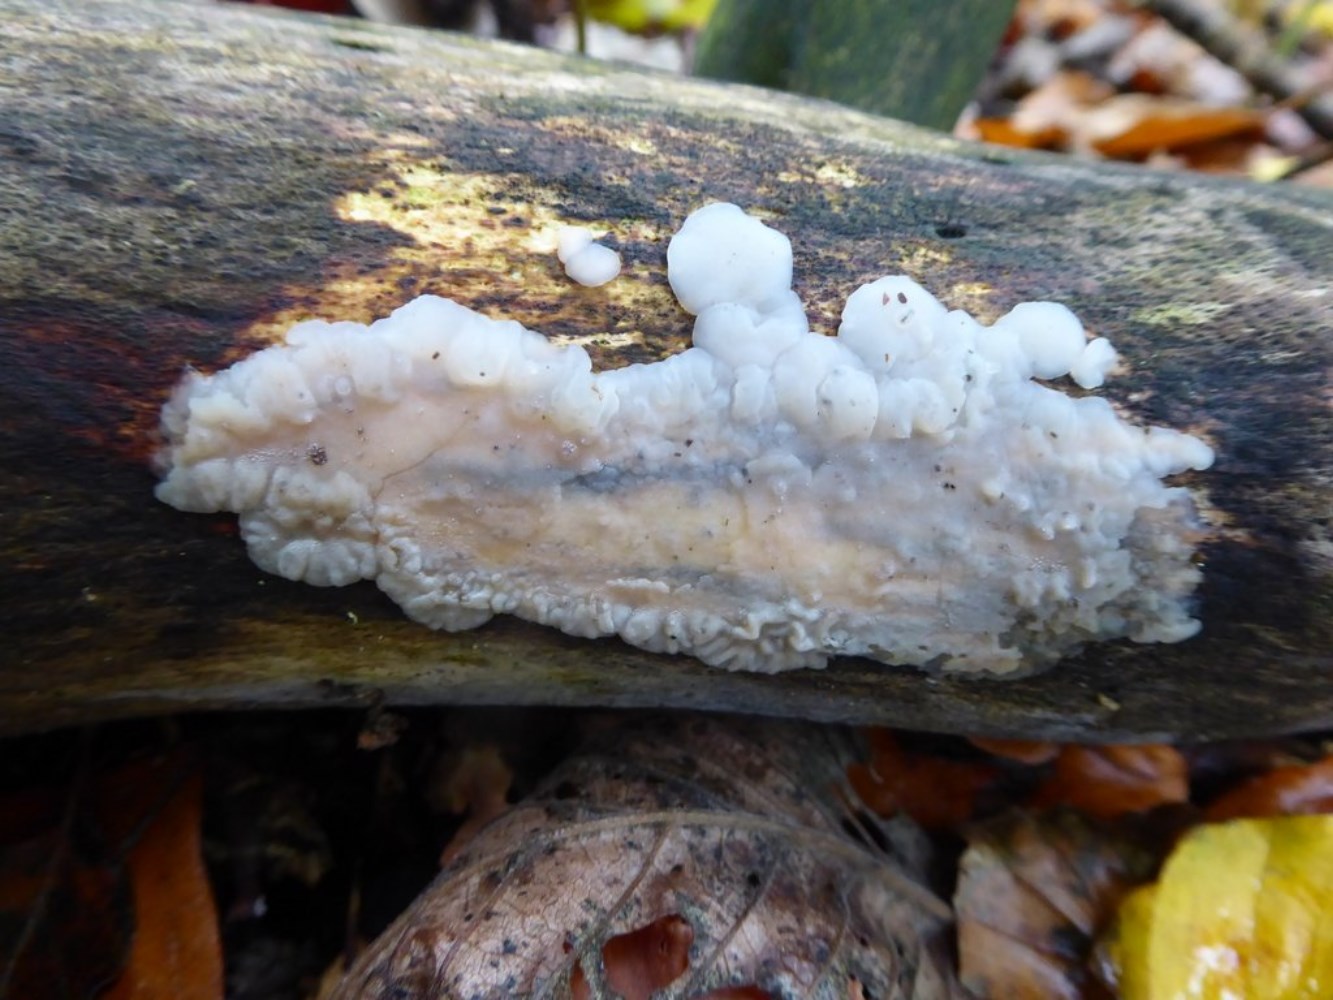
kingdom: Fungi
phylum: Basidiomycota
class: Agaricomycetes
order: Auriculariales
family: Auriculariaceae
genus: Exidia
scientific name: Exidia thuretiana
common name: hvidlig bævretop
